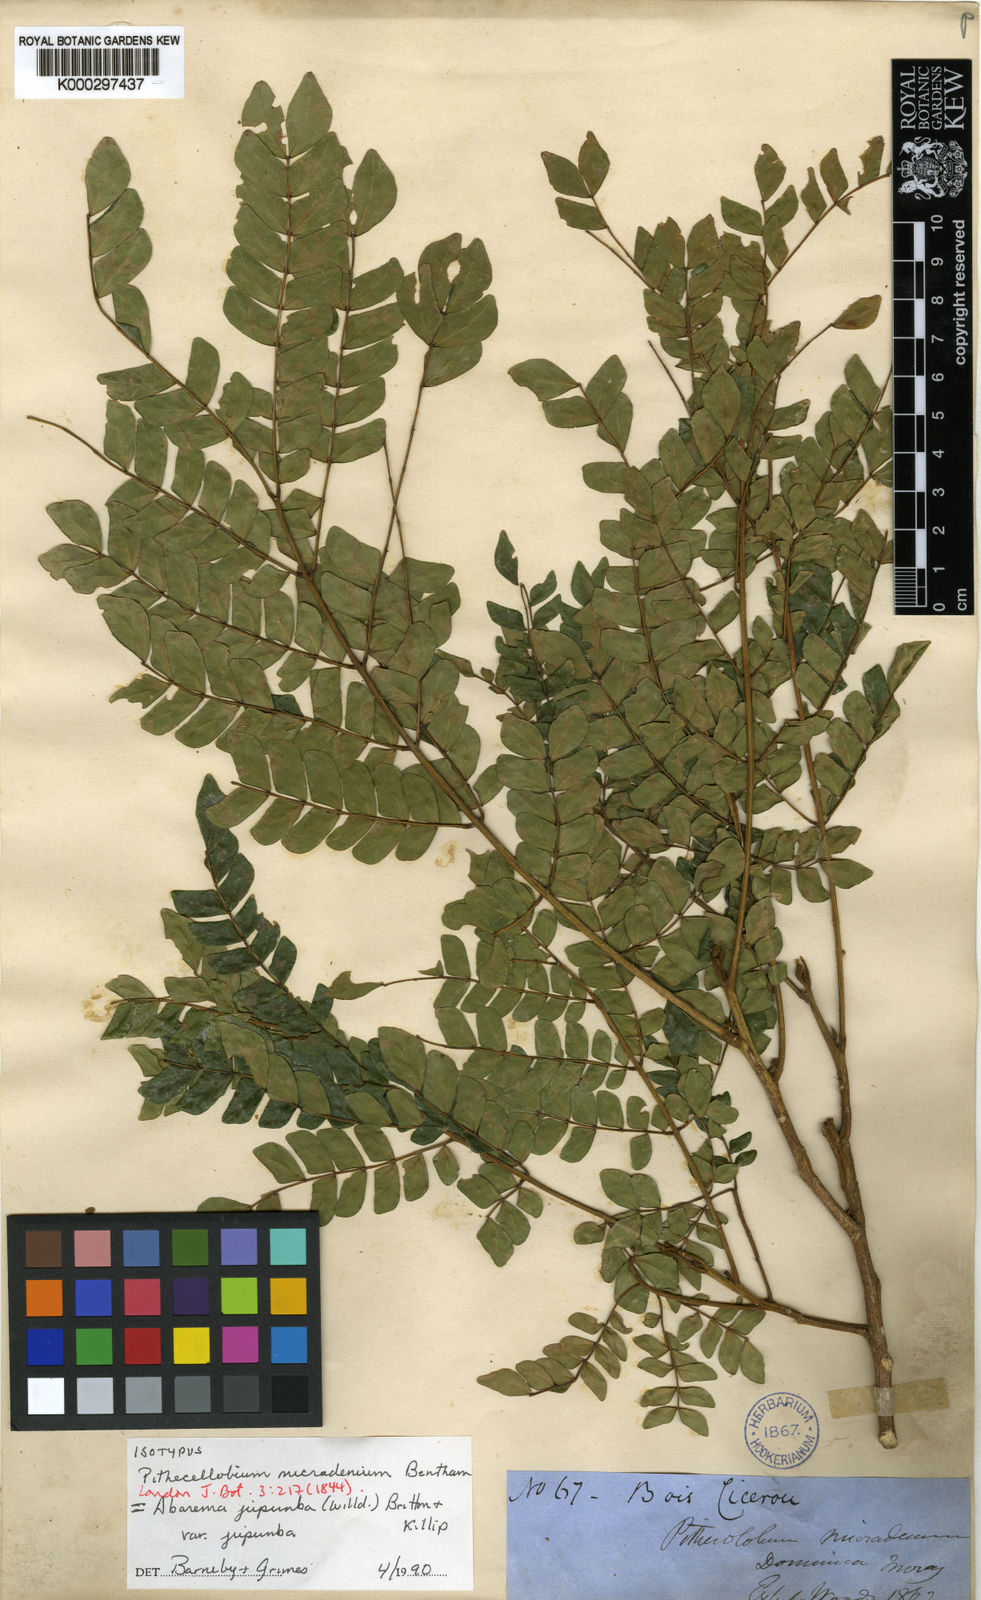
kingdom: Plantae
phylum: Tracheophyta
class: Magnoliopsida
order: Fabales
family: Fabaceae
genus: Abarema
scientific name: Abarema
